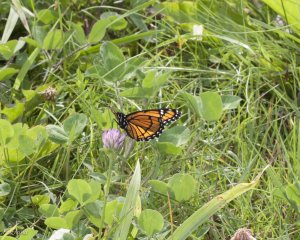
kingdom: Animalia
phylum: Arthropoda
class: Insecta
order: Lepidoptera
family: Nymphalidae
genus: Limenitis
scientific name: Limenitis archippus
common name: Viceroy
